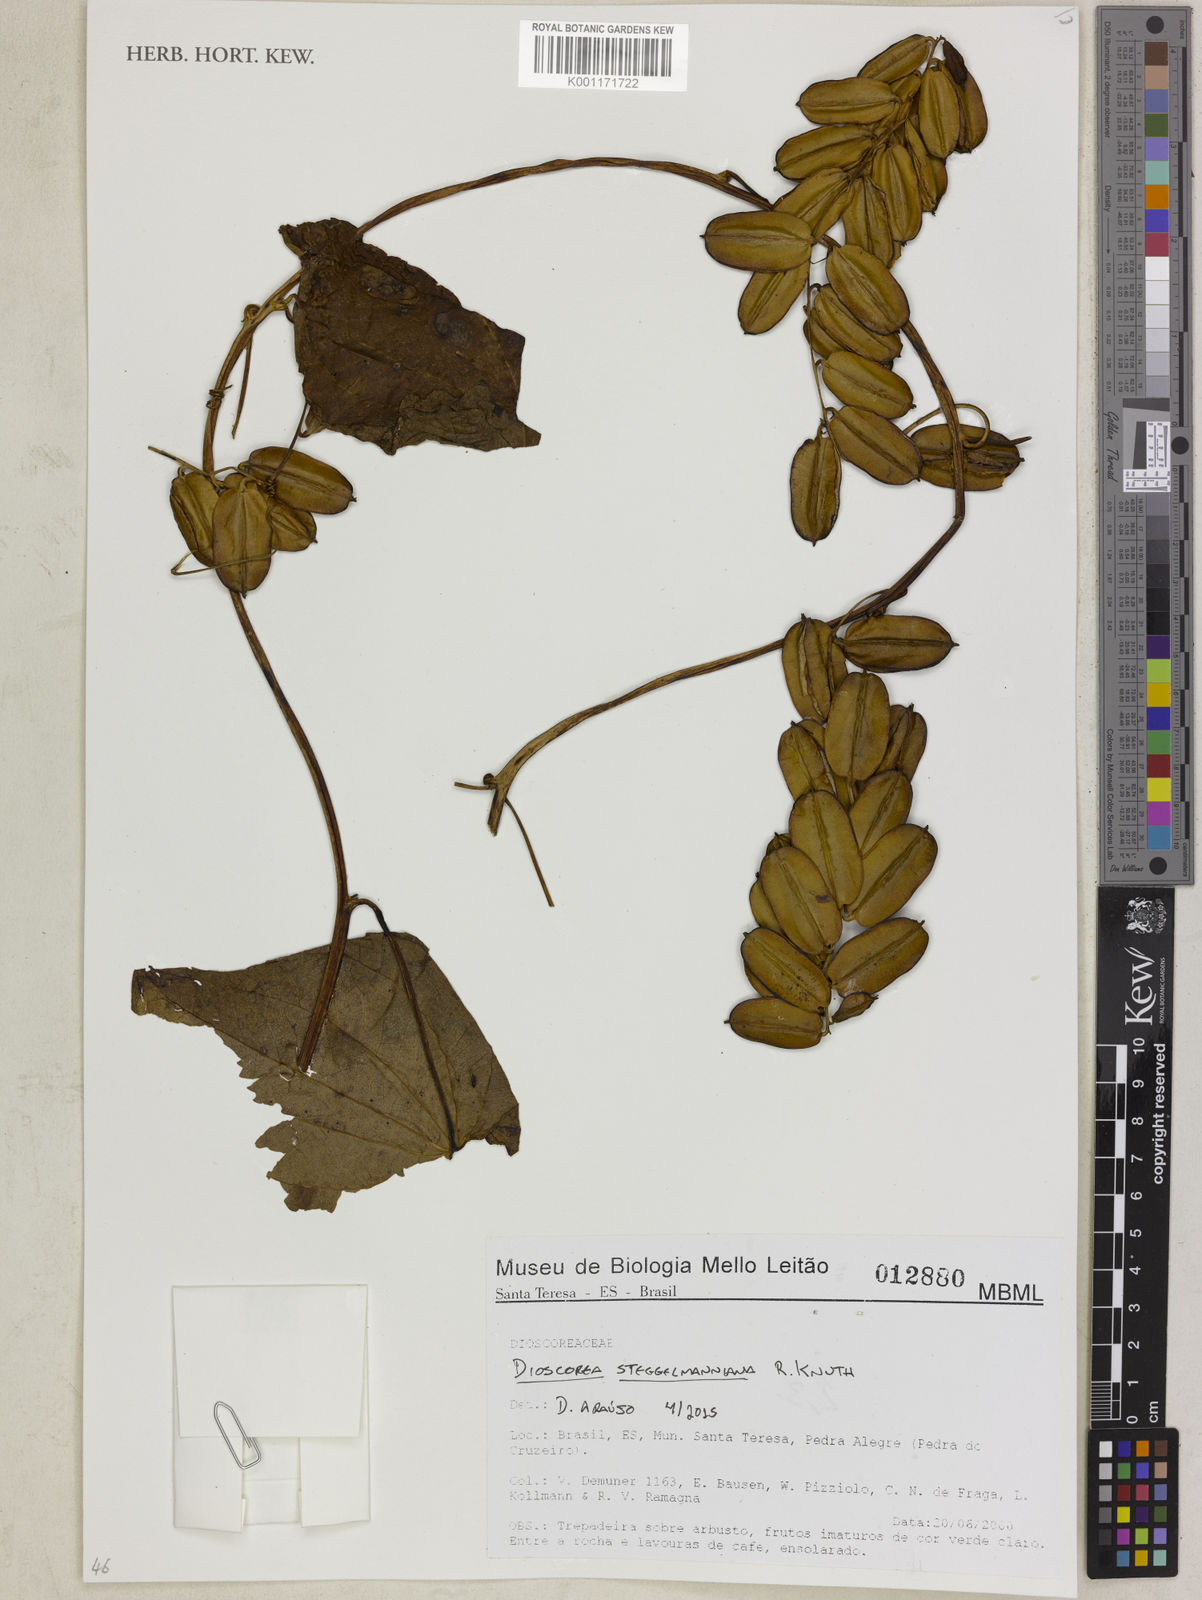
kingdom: Plantae
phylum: Tracheophyta
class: Liliopsida
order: Dioscoreales
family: Dioscoreaceae
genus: Dioscorea
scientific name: Dioscorea stegelmanniana
